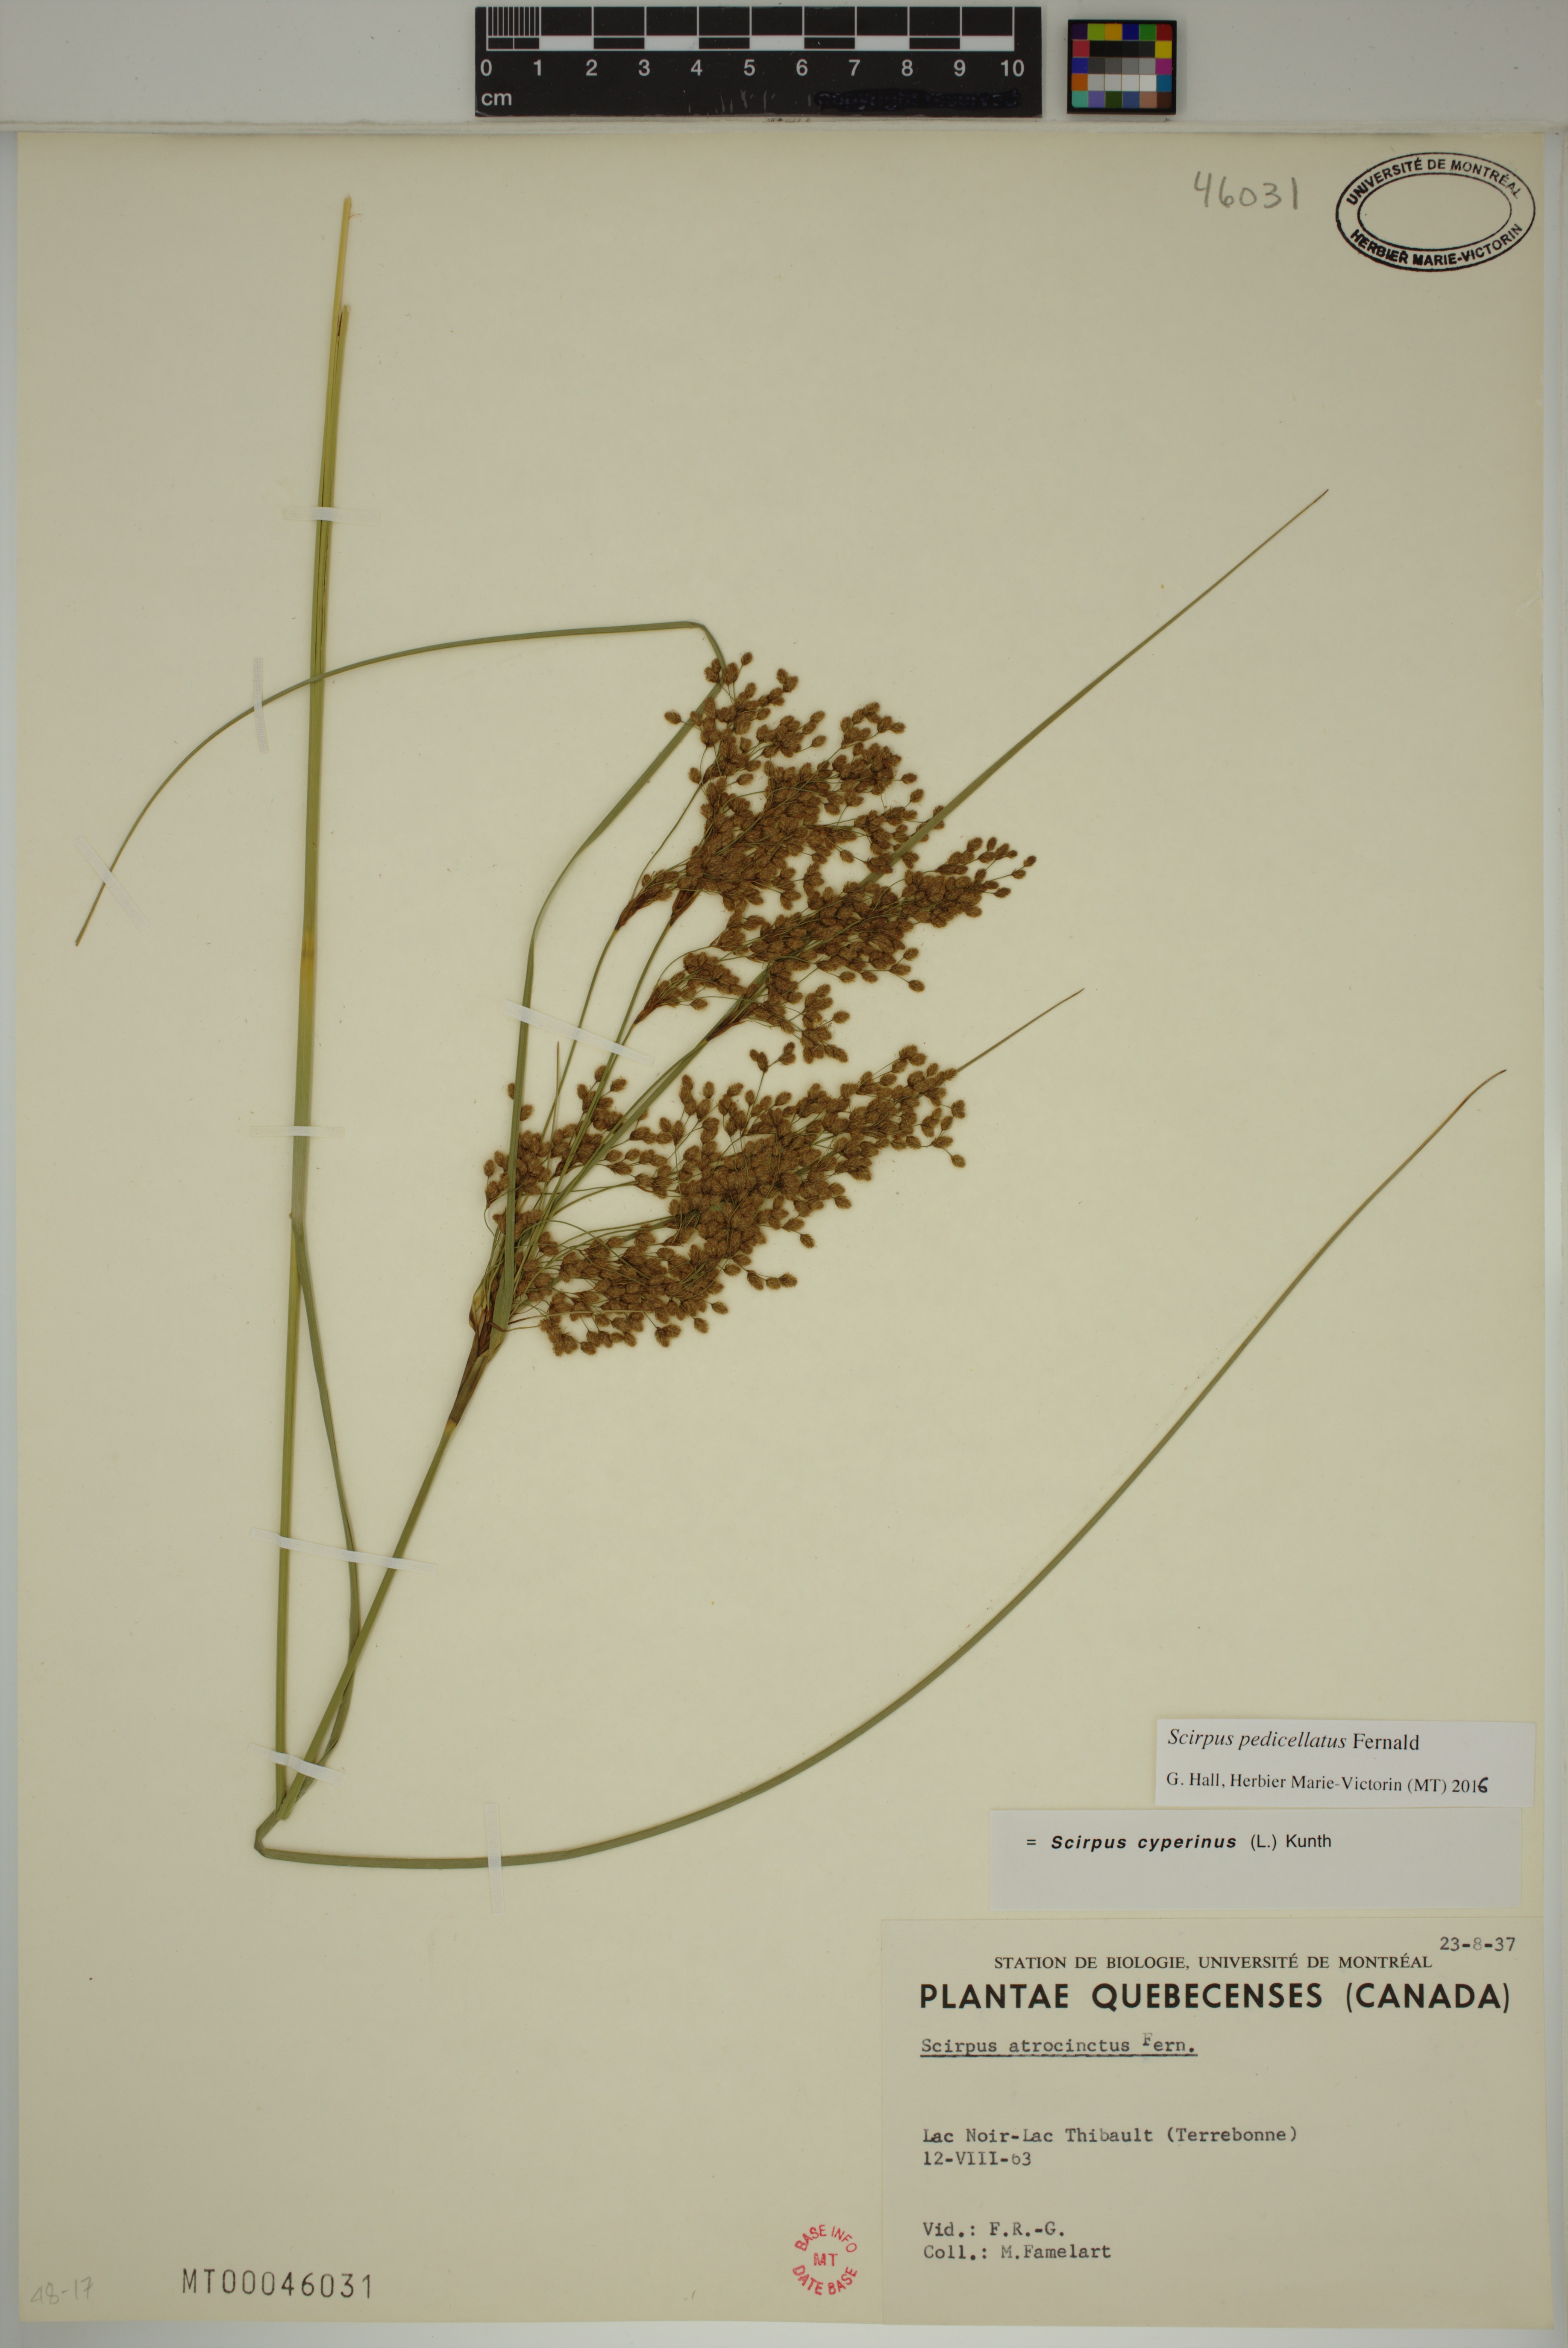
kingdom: Plantae
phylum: Tracheophyta
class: Liliopsida
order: Poales
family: Cyperaceae
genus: Scirpus
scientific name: Scirpus pedicellatus
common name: Pedicelled bulrush
